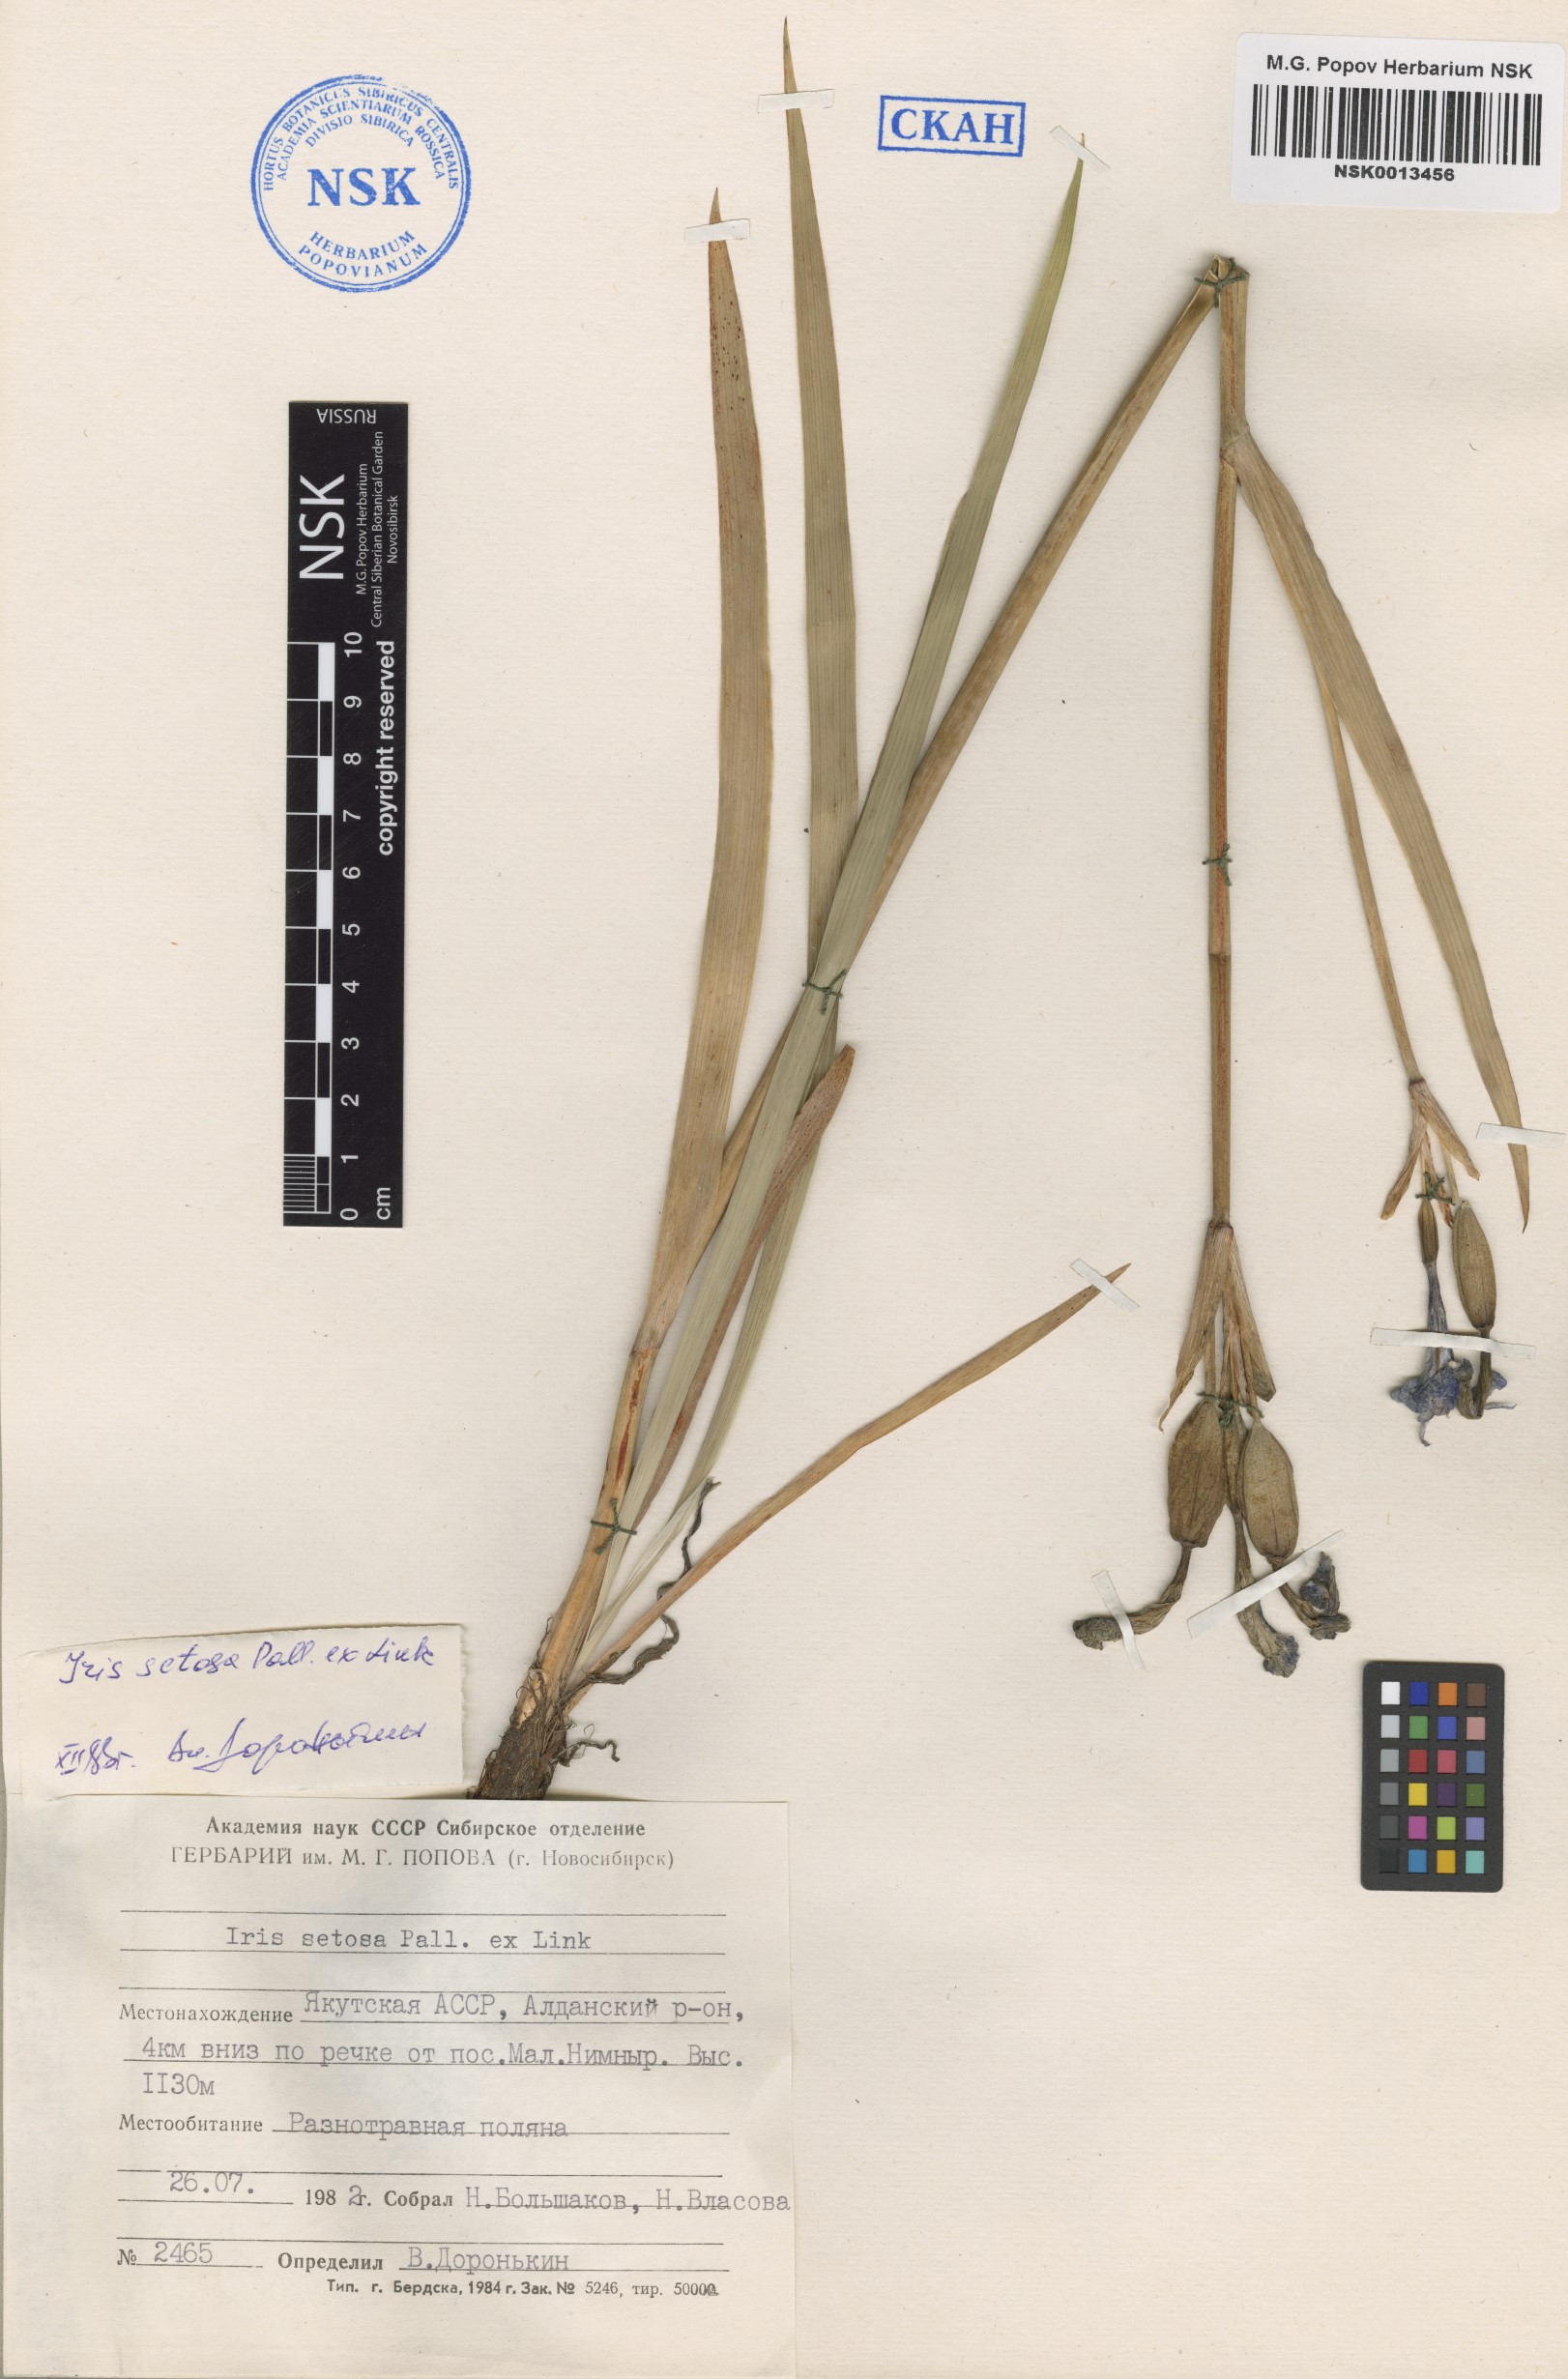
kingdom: Plantae
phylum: Tracheophyta
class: Liliopsida
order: Asparagales
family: Iridaceae
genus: Iris
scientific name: Iris setosa
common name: Arctic blue flag
